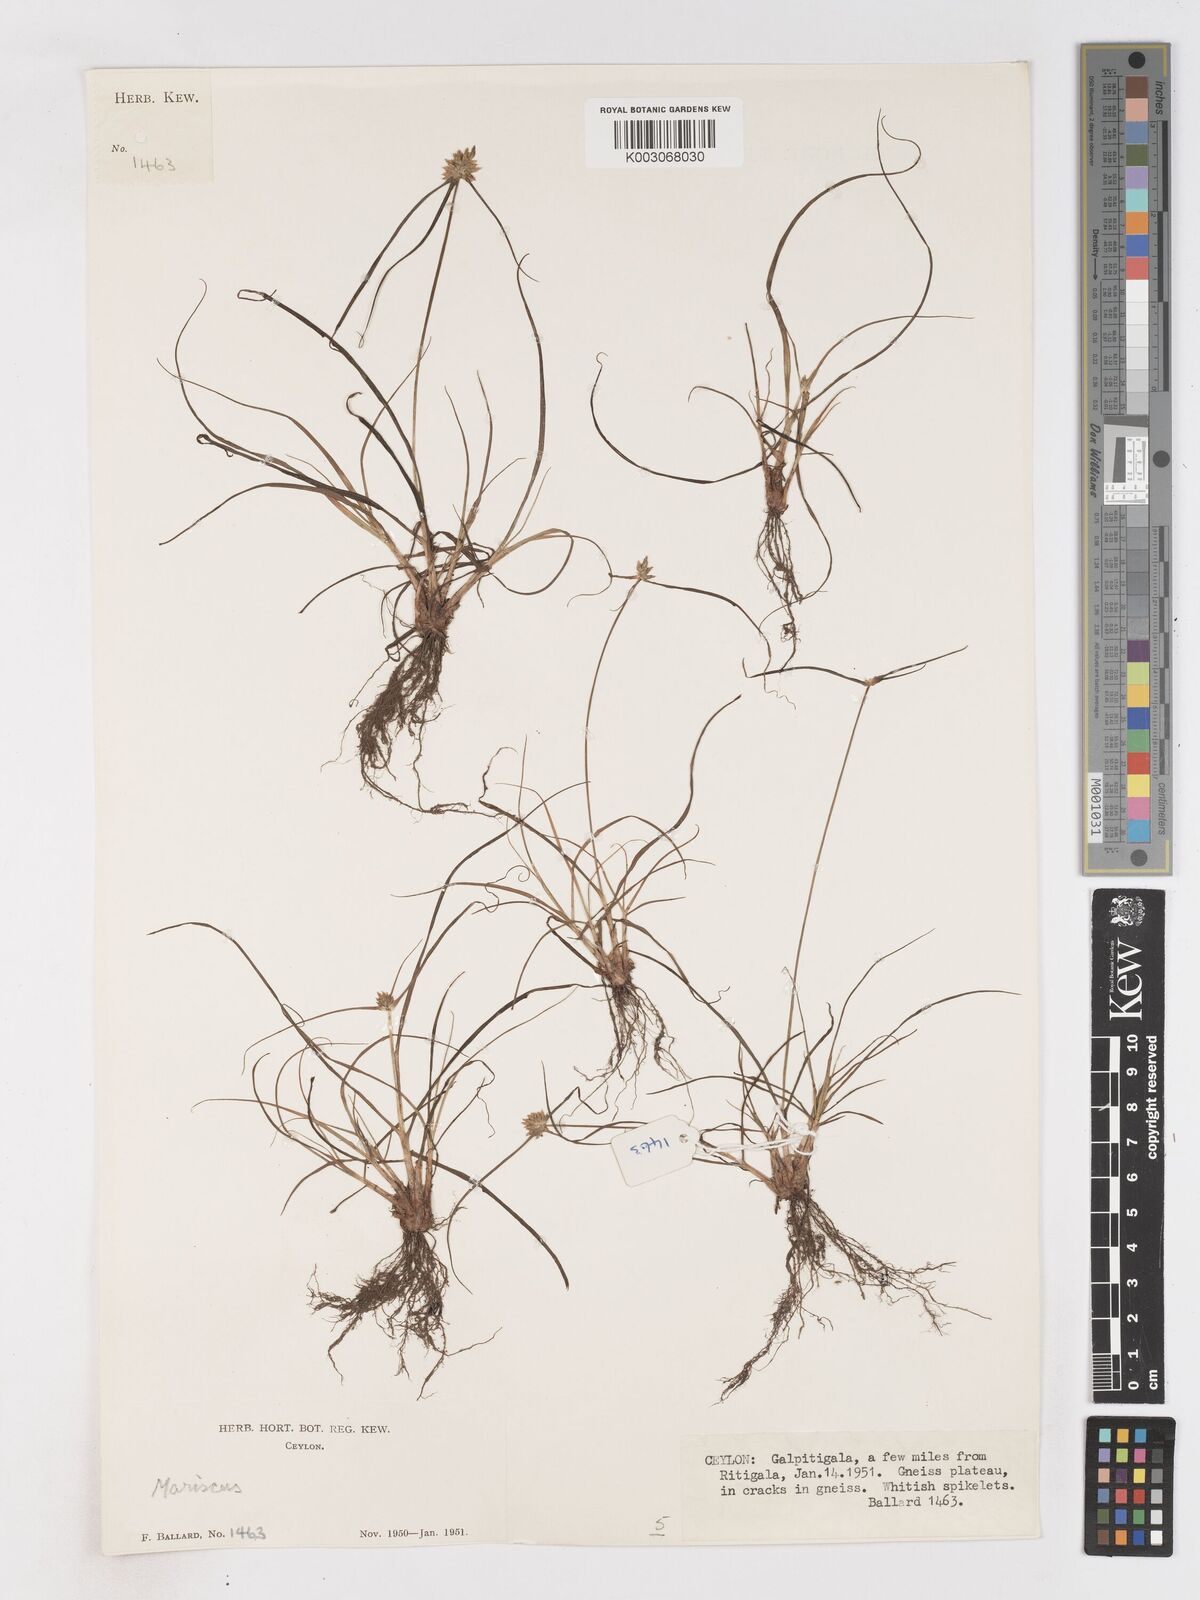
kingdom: Plantae
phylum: Tracheophyta
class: Liliopsida
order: Poales
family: Cyperaceae
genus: Cyperus
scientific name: Cyperus dubius
